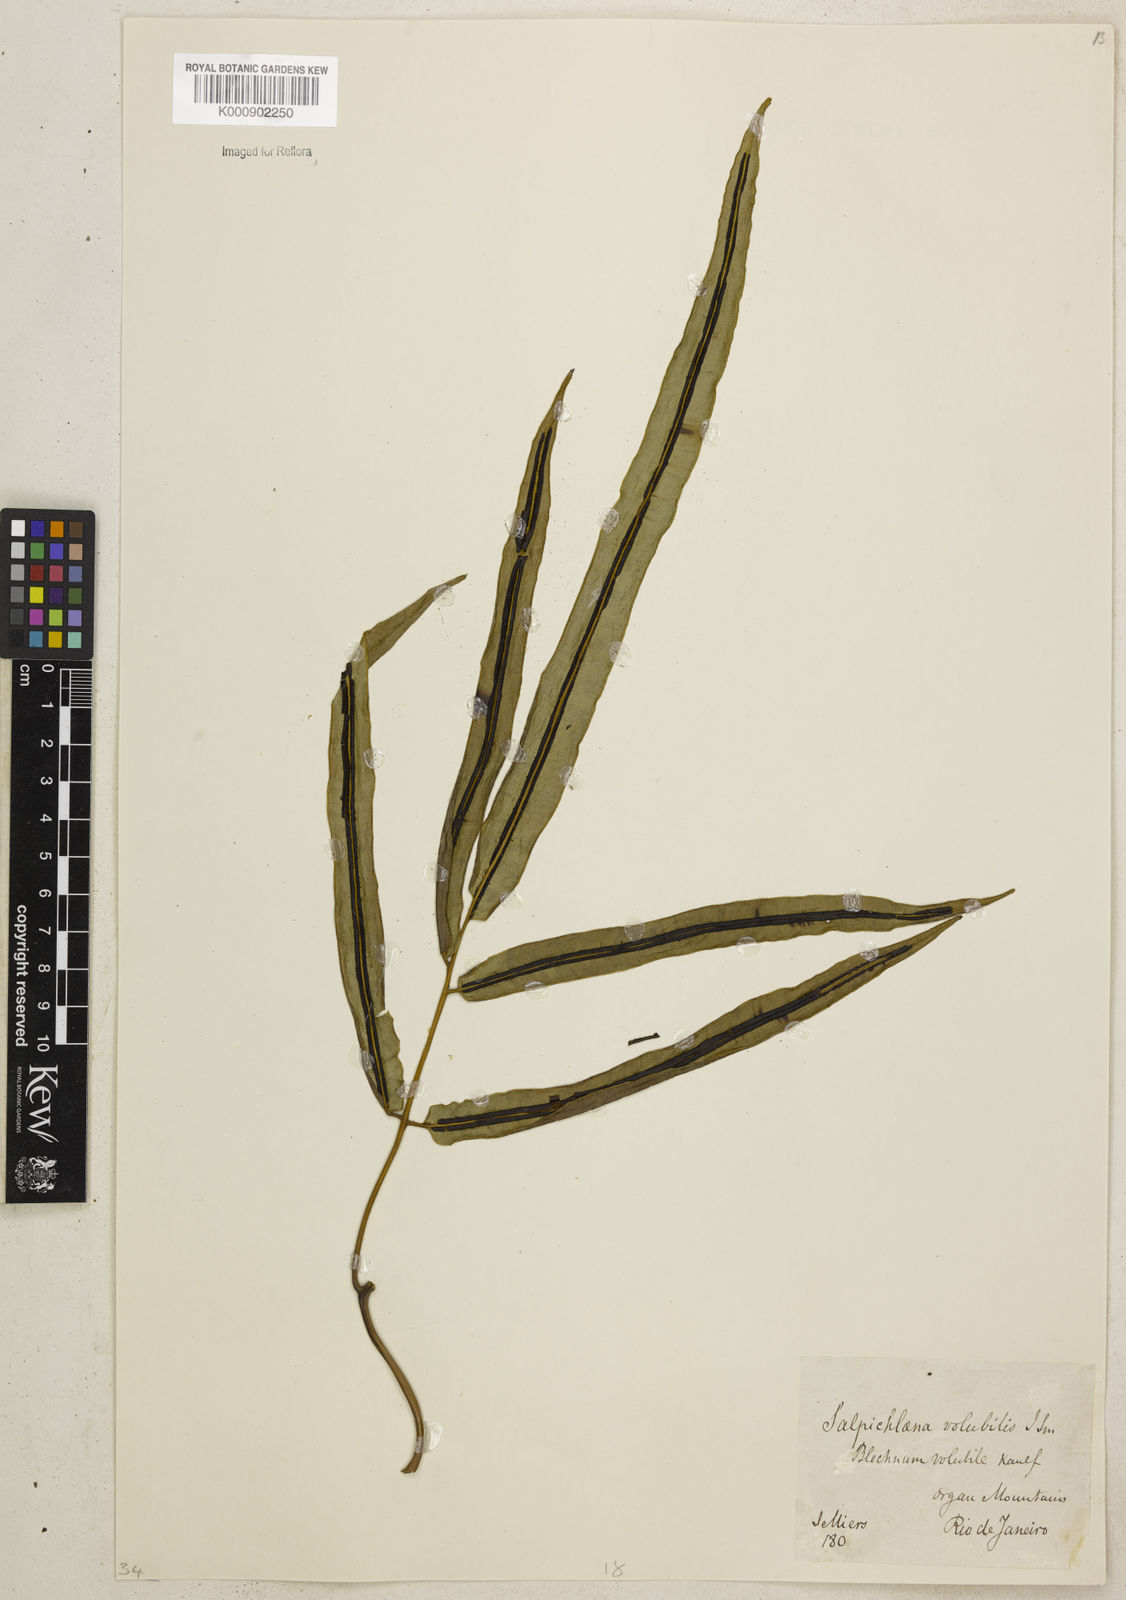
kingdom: Plantae
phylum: Tracheophyta
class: Polypodiopsida
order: Polypodiales
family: Blechnaceae
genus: Salpichlaena
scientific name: Salpichlaena volubilis
